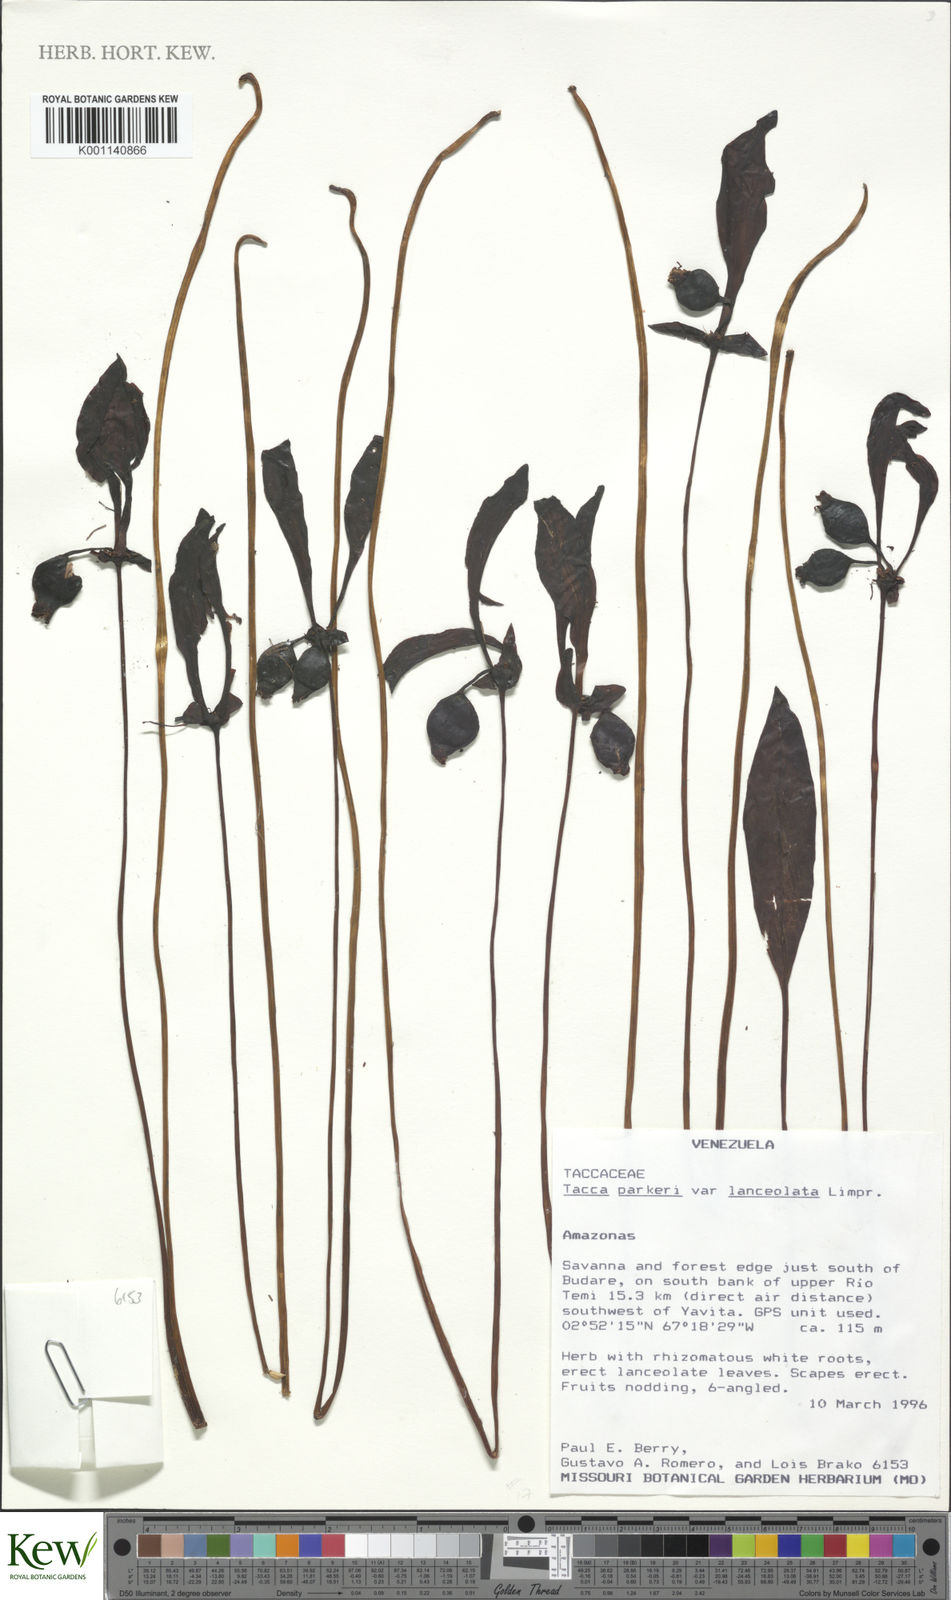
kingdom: Plantae
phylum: Tracheophyta
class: Liliopsida
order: Dioscoreales
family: Dioscoreaceae
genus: Tacca
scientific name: Tacca parkeri
